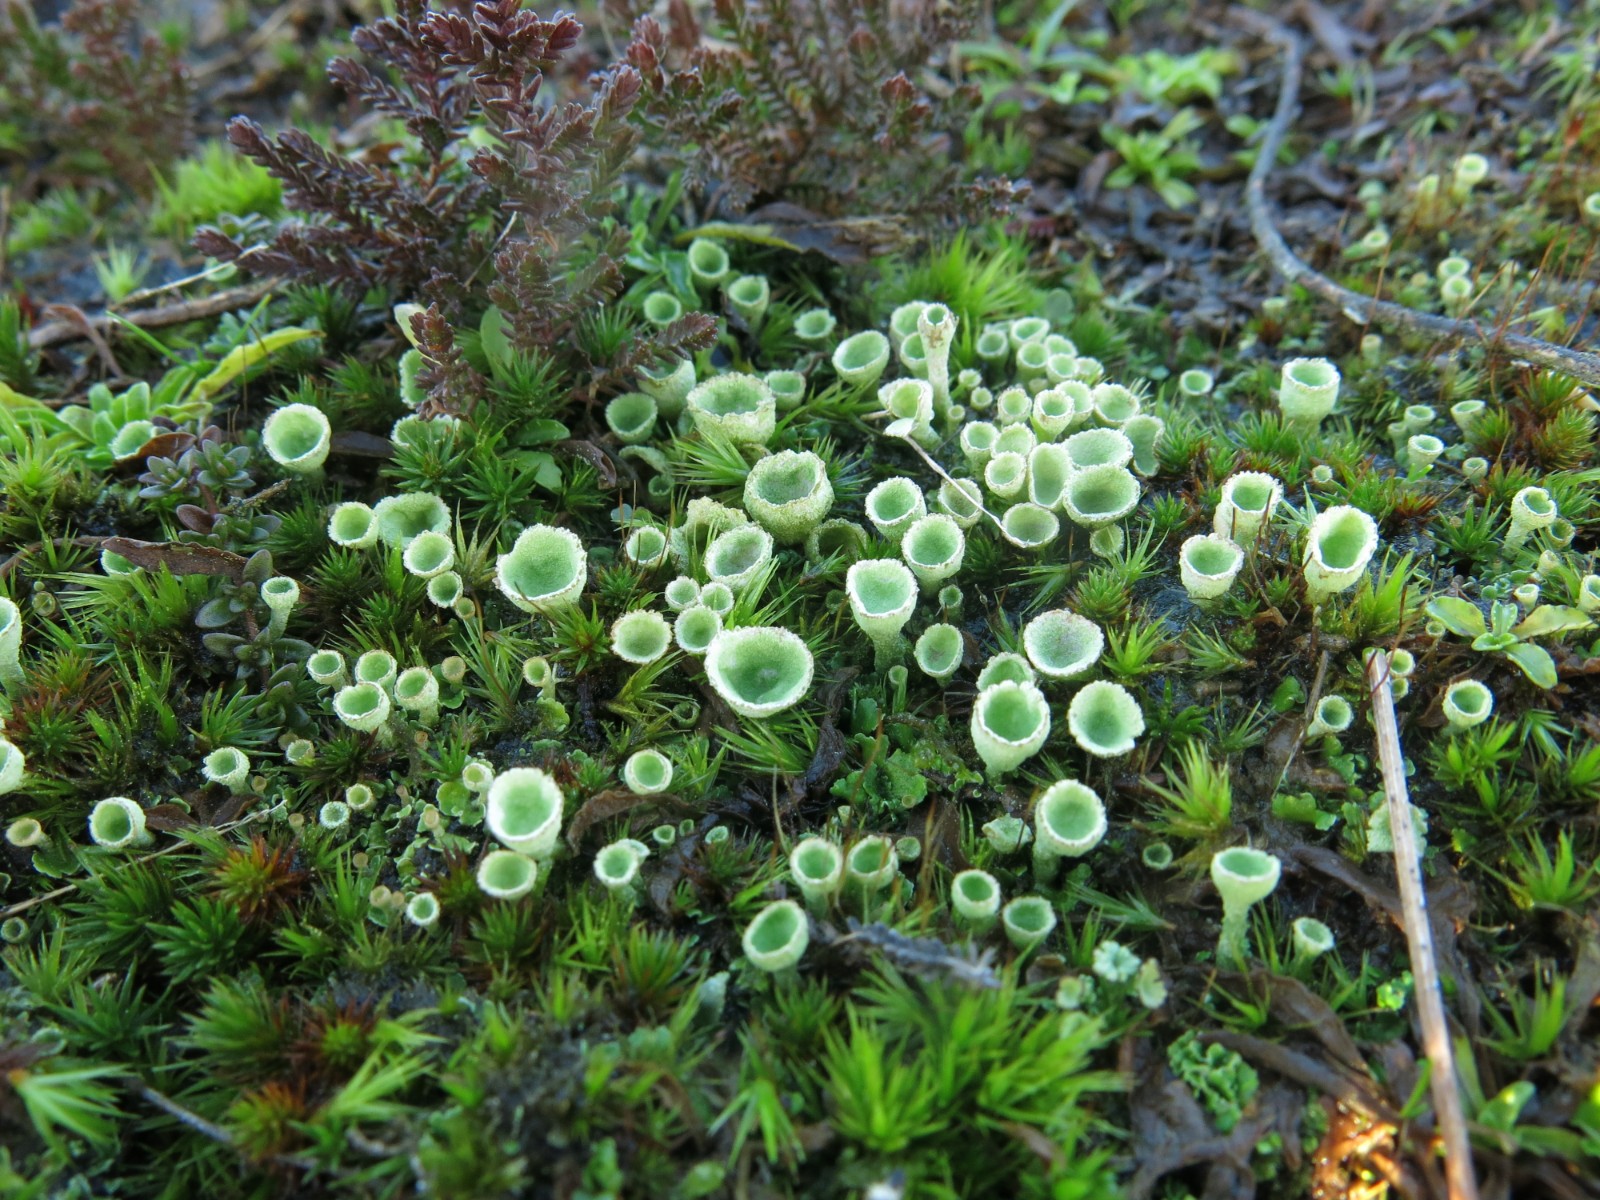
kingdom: Fungi
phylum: Ascomycota
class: Lecanoromycetes
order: Lecanorales
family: Cladoniaceae
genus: Cladonia
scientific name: Cladonia humilis
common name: lav bægerlav
